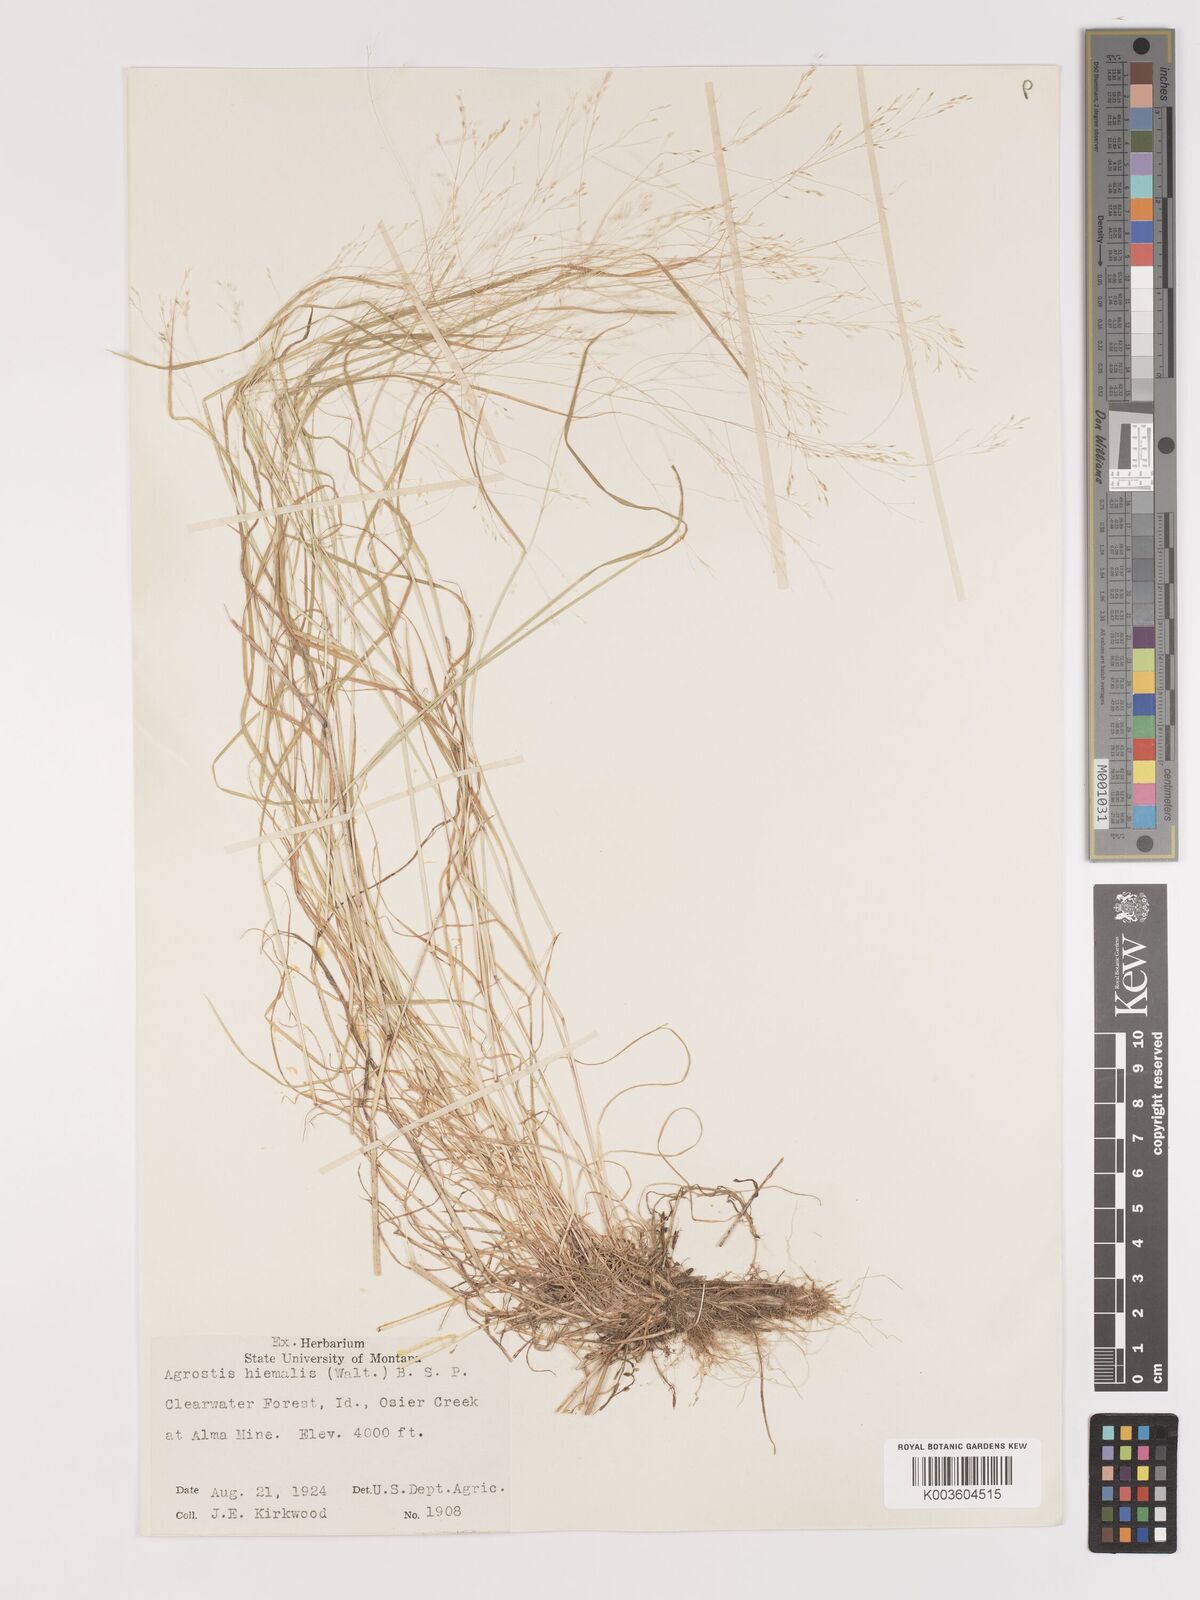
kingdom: Plantae
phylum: Tracheophyta
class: Liliopsida
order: Poales
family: Poaceae
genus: Agrostis
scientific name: Agrostis hyemalis
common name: Small bent
